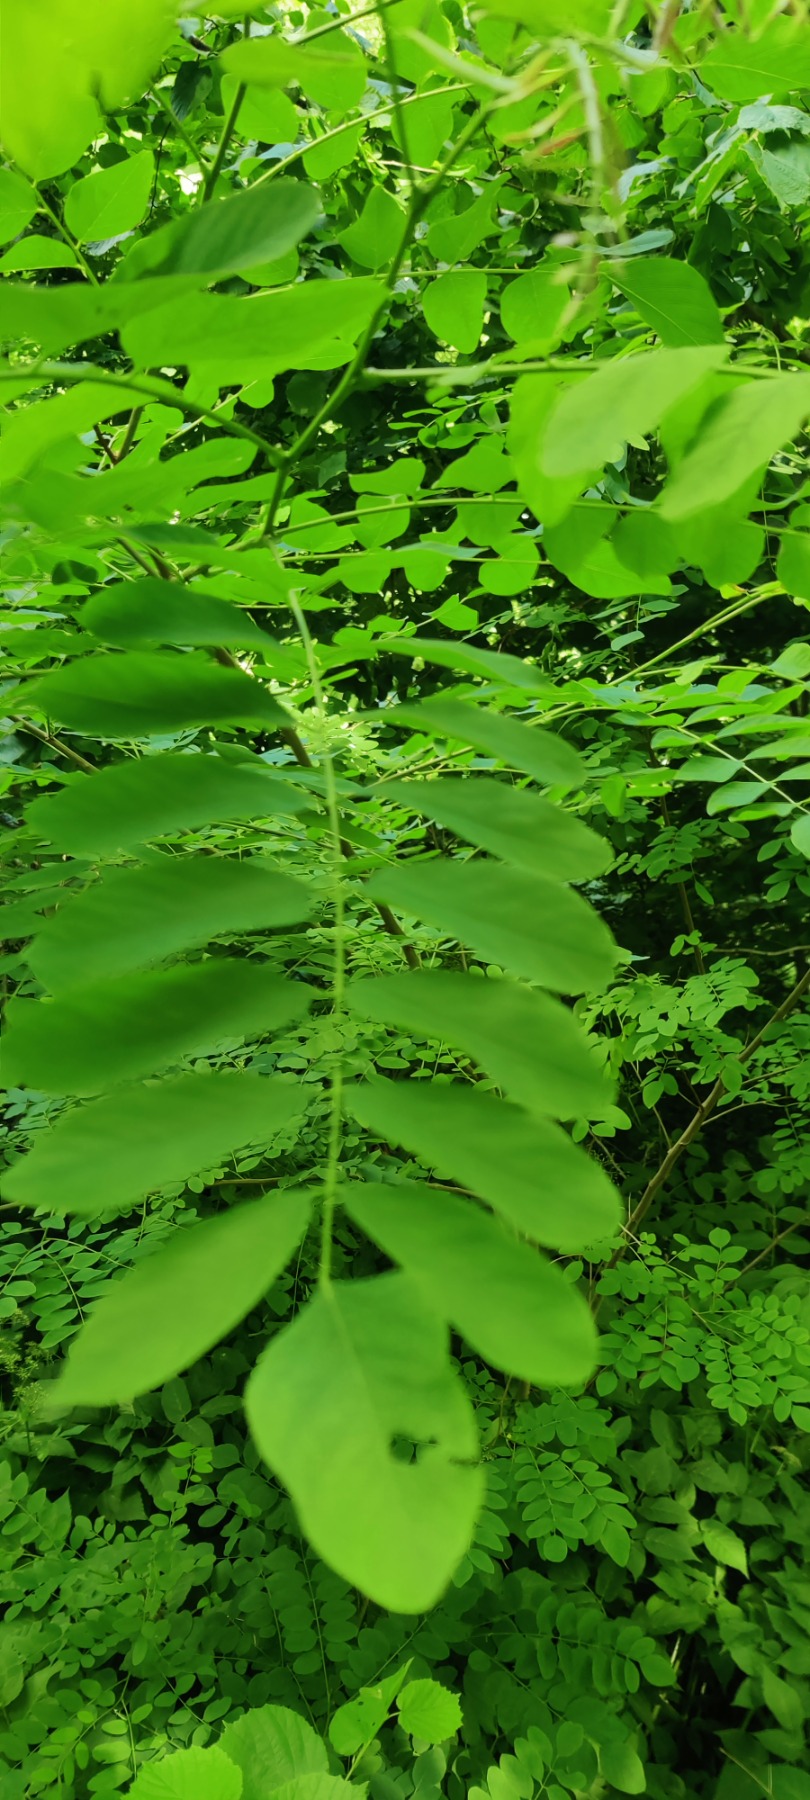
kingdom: Plantae
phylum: Tracheophyta
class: Magnoliopsida
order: Fabales
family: Fabaceae
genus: Robinia
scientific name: Robinia pseudoacacia
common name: Robinie
